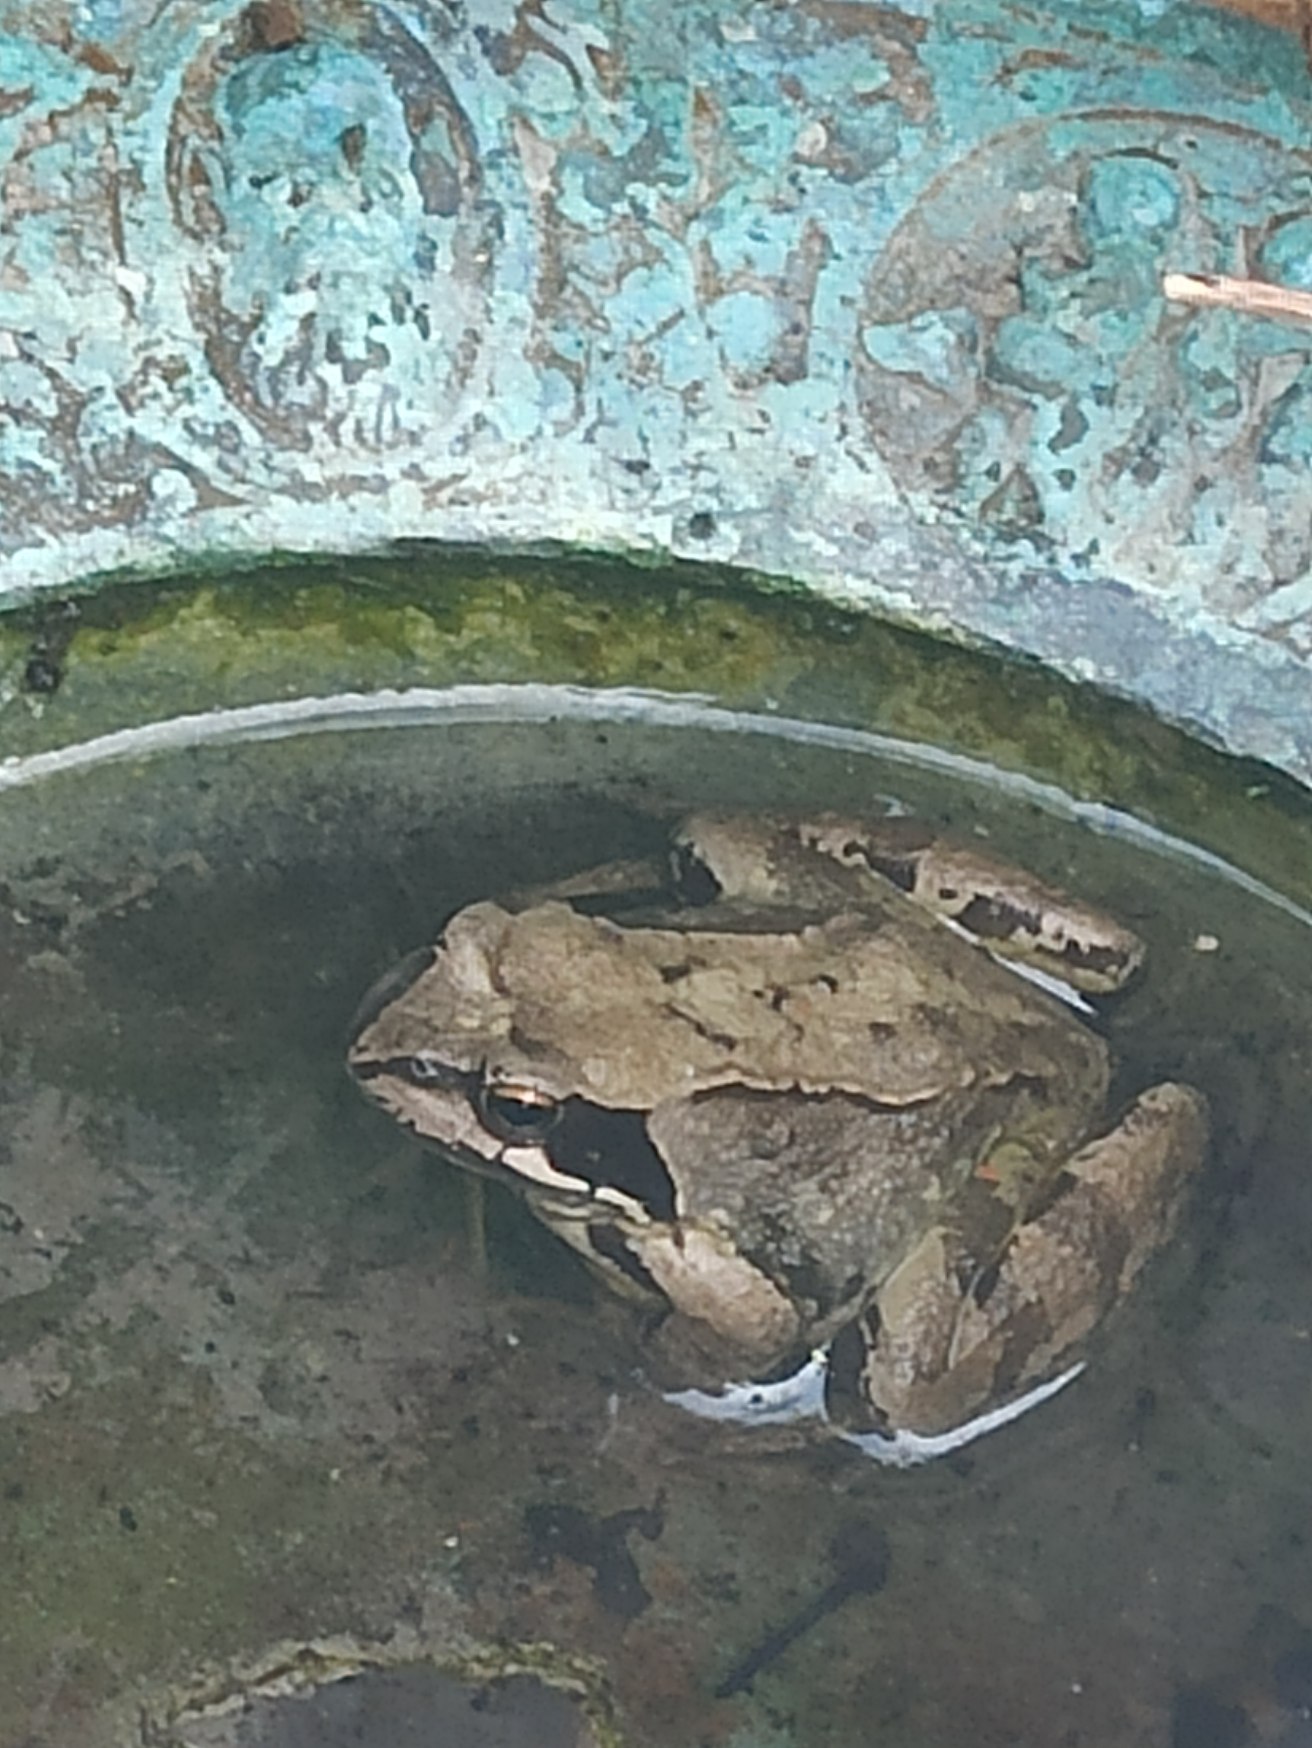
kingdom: Animalia
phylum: Chordata
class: Amphibia
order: Anura
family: Ranidae
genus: Rana
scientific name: Rana temporaria
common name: Butsnudet frø
